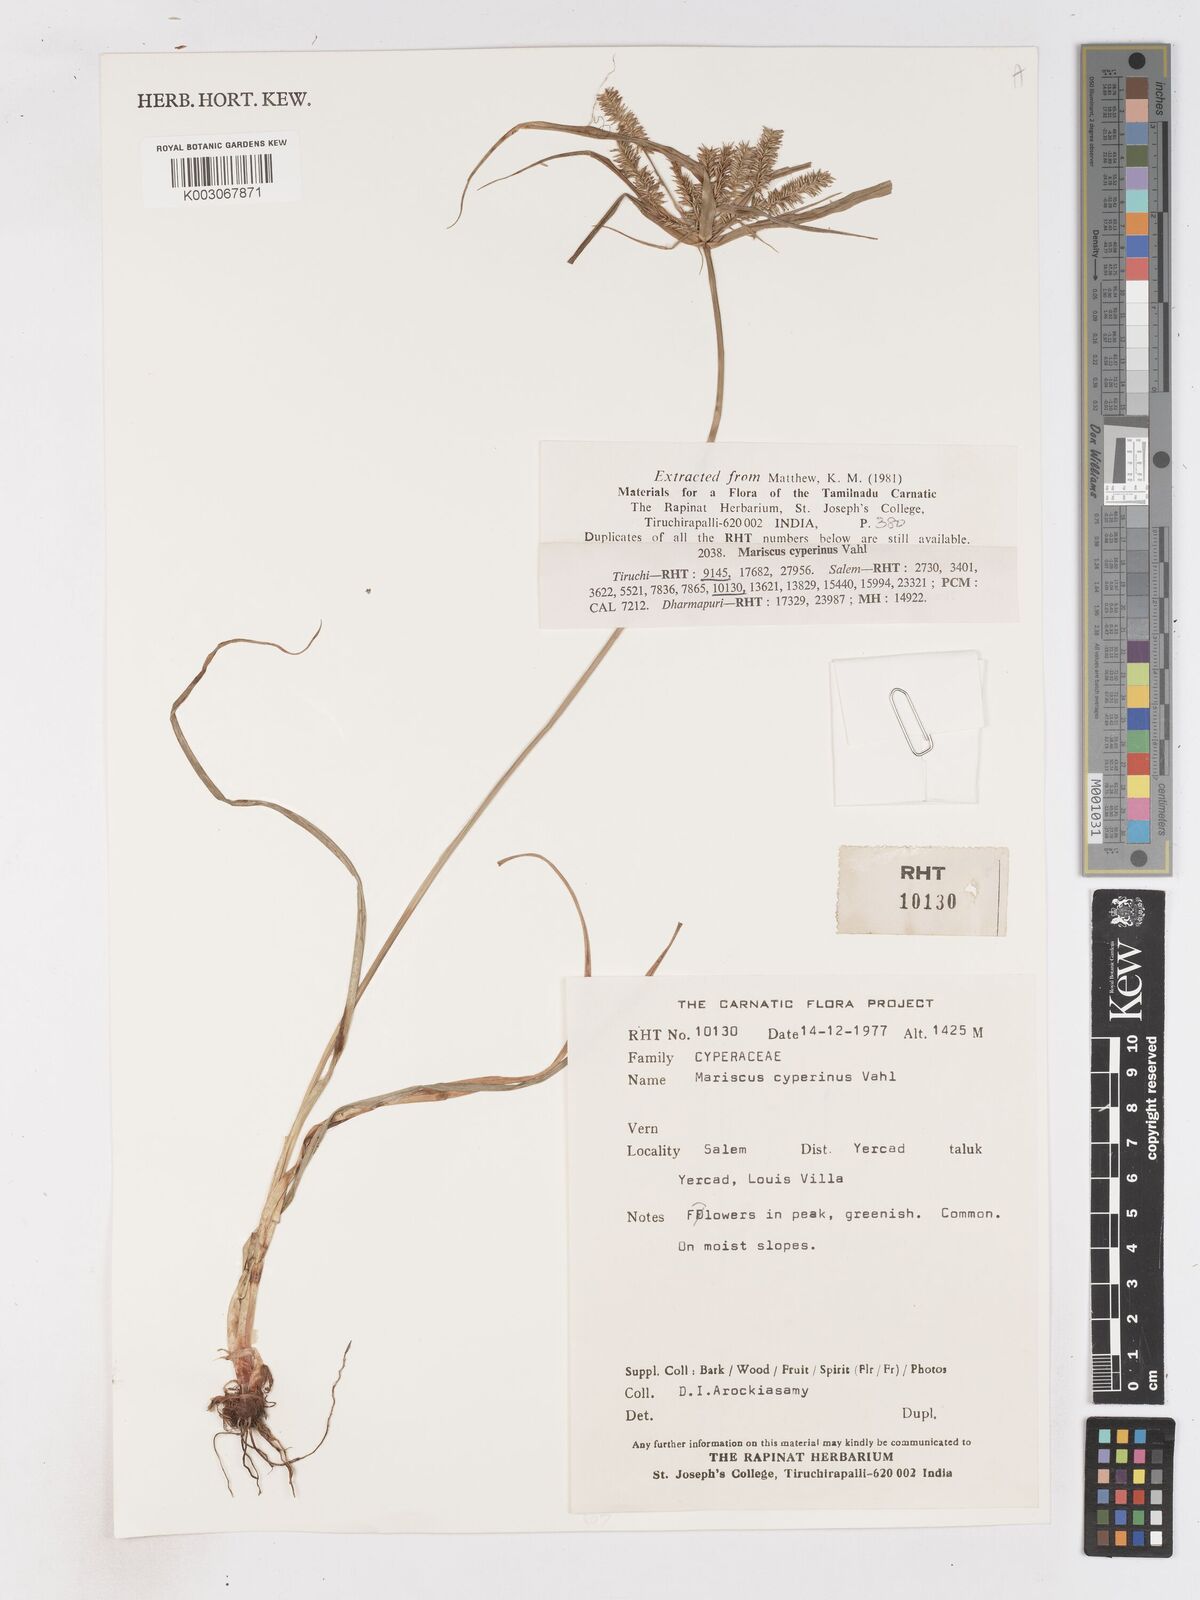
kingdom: Plantae
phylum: Tracheophyta
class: Liliopsida
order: Poales
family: Cyperaceae
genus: Cyperus
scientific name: Cyperus cyperinus
